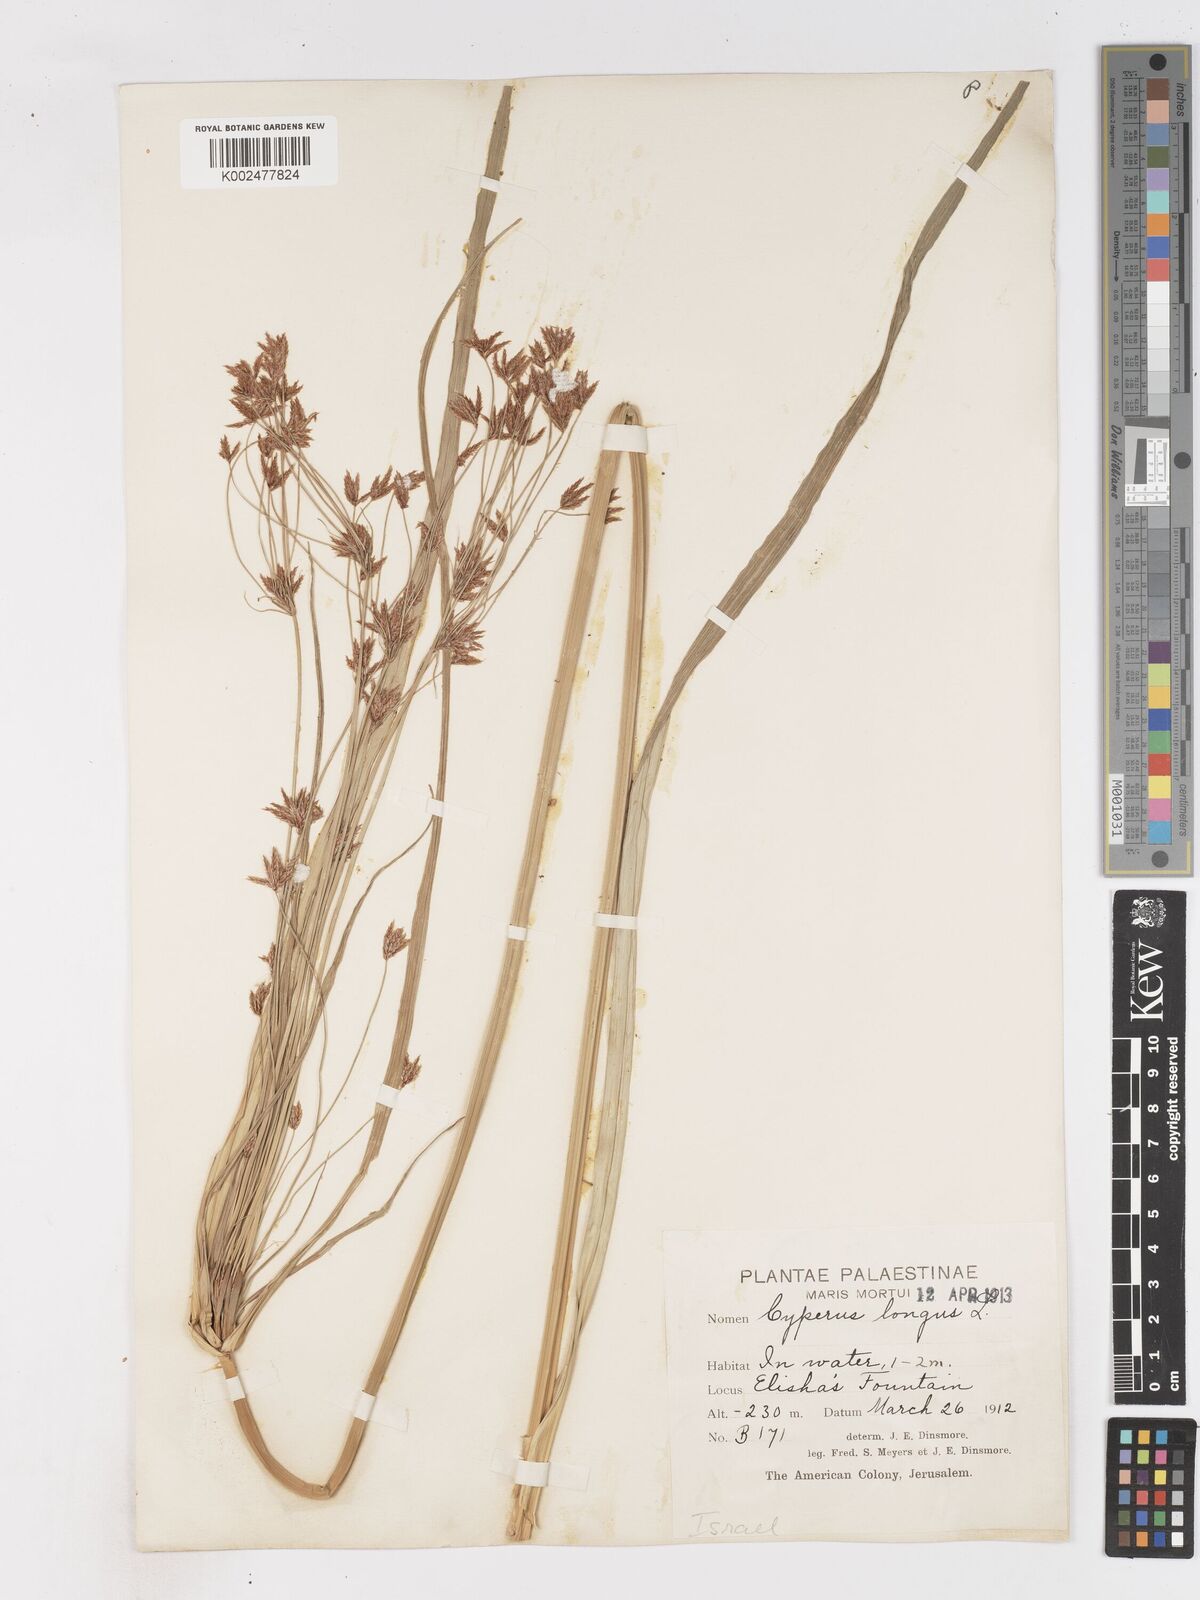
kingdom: Plantae
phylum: Tracheophyta
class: Liliopsida
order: Poales
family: Cyperaceae
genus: Cyperus
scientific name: Cyperus longus
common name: Galingale
